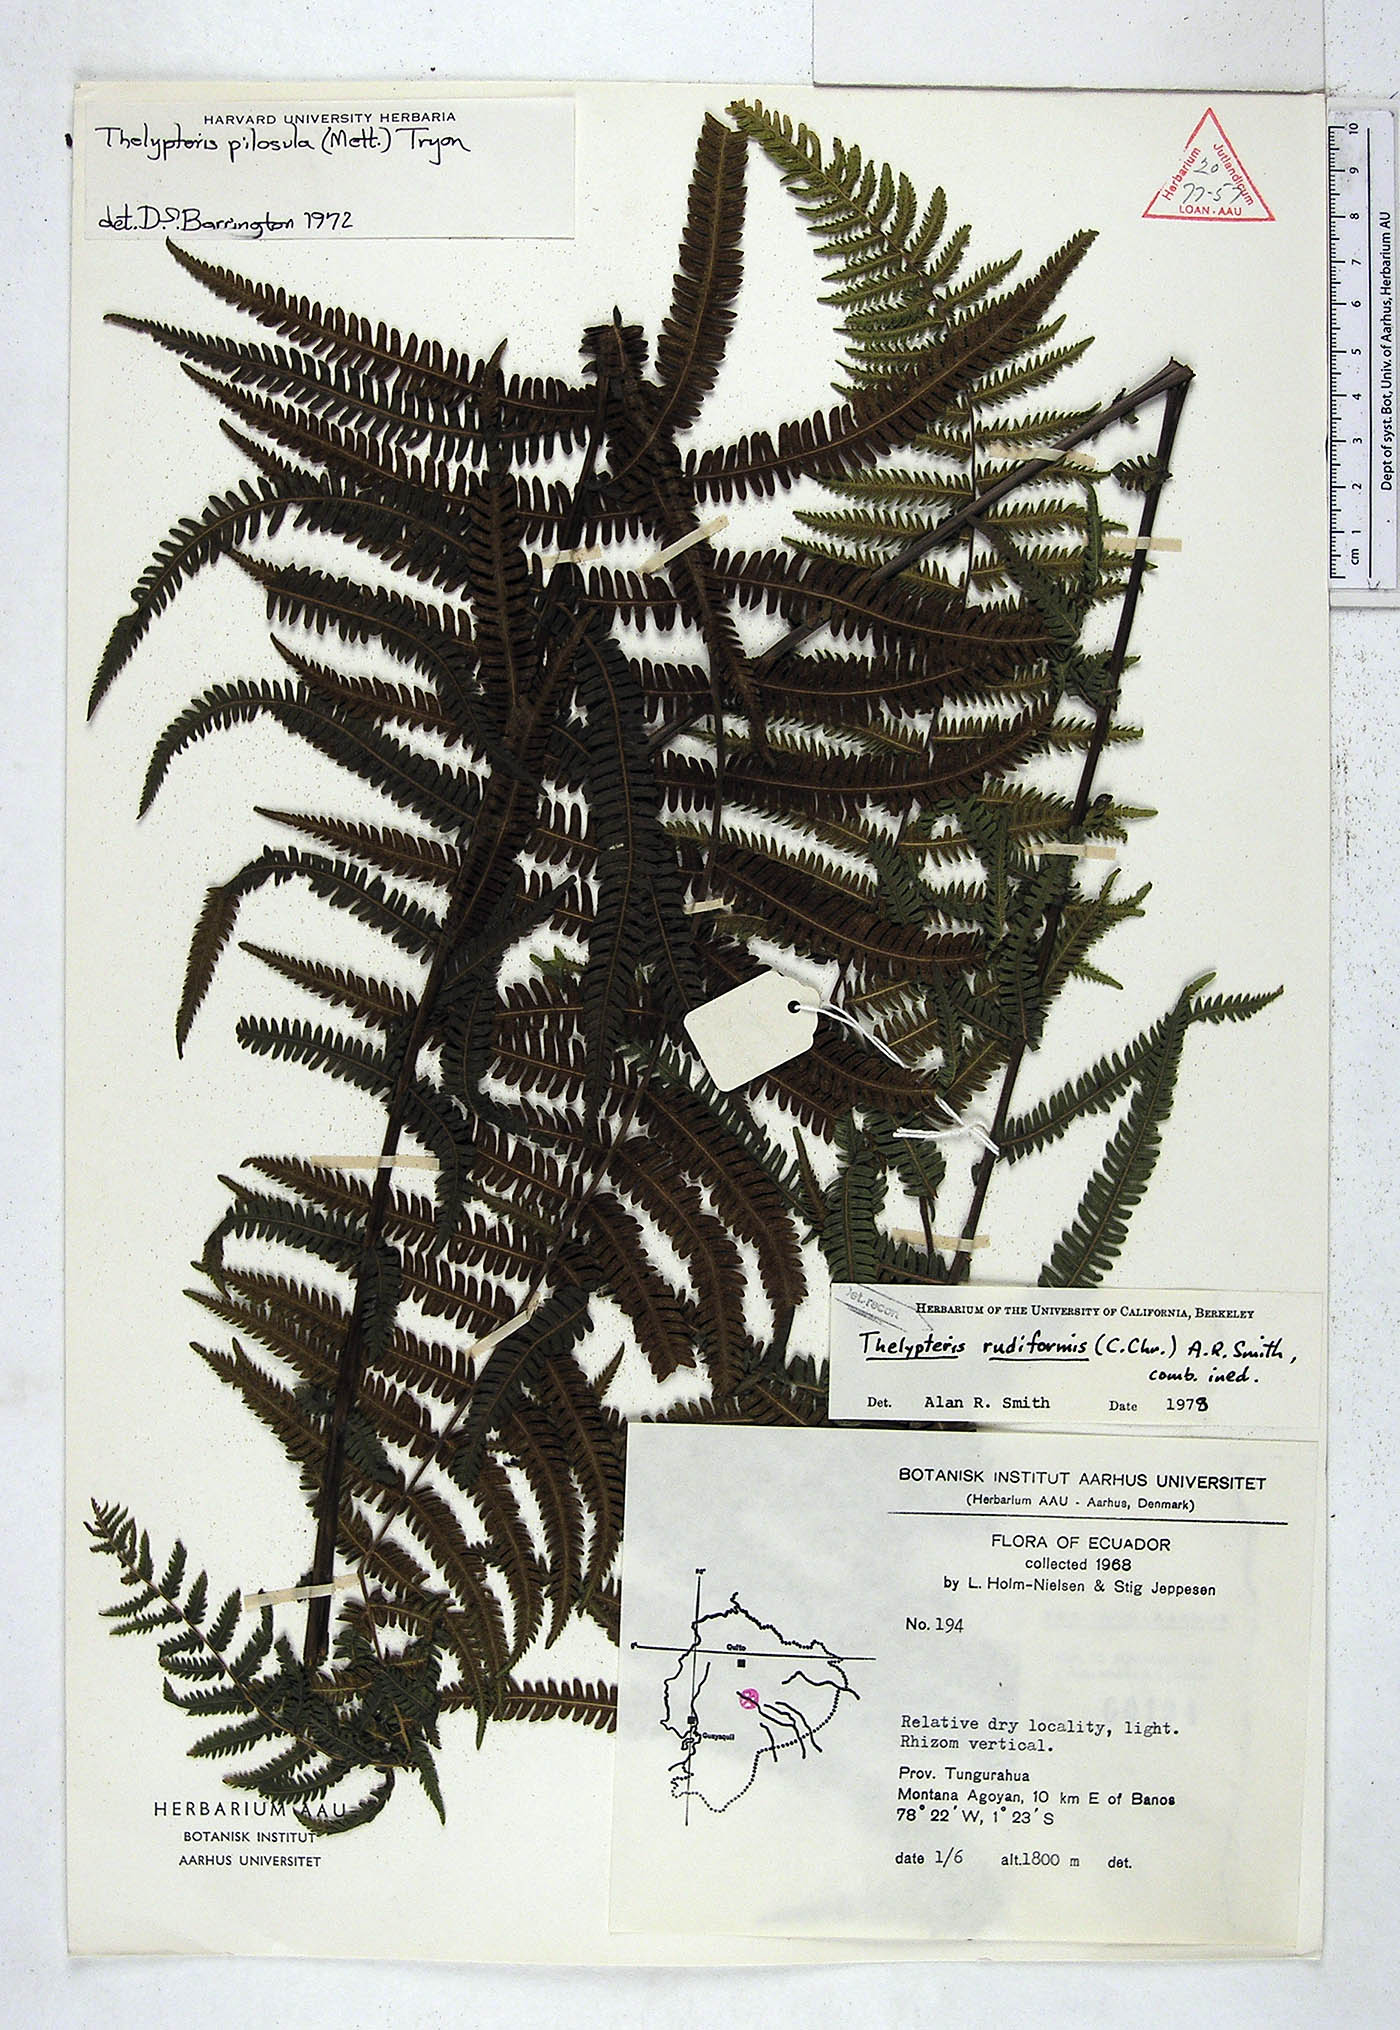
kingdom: Plantae
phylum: Tracheophyta
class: Polypodiopsida
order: Polypodiales
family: Thelypteridaceae
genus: Amauropelta
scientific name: Amauropelta rudiformis
